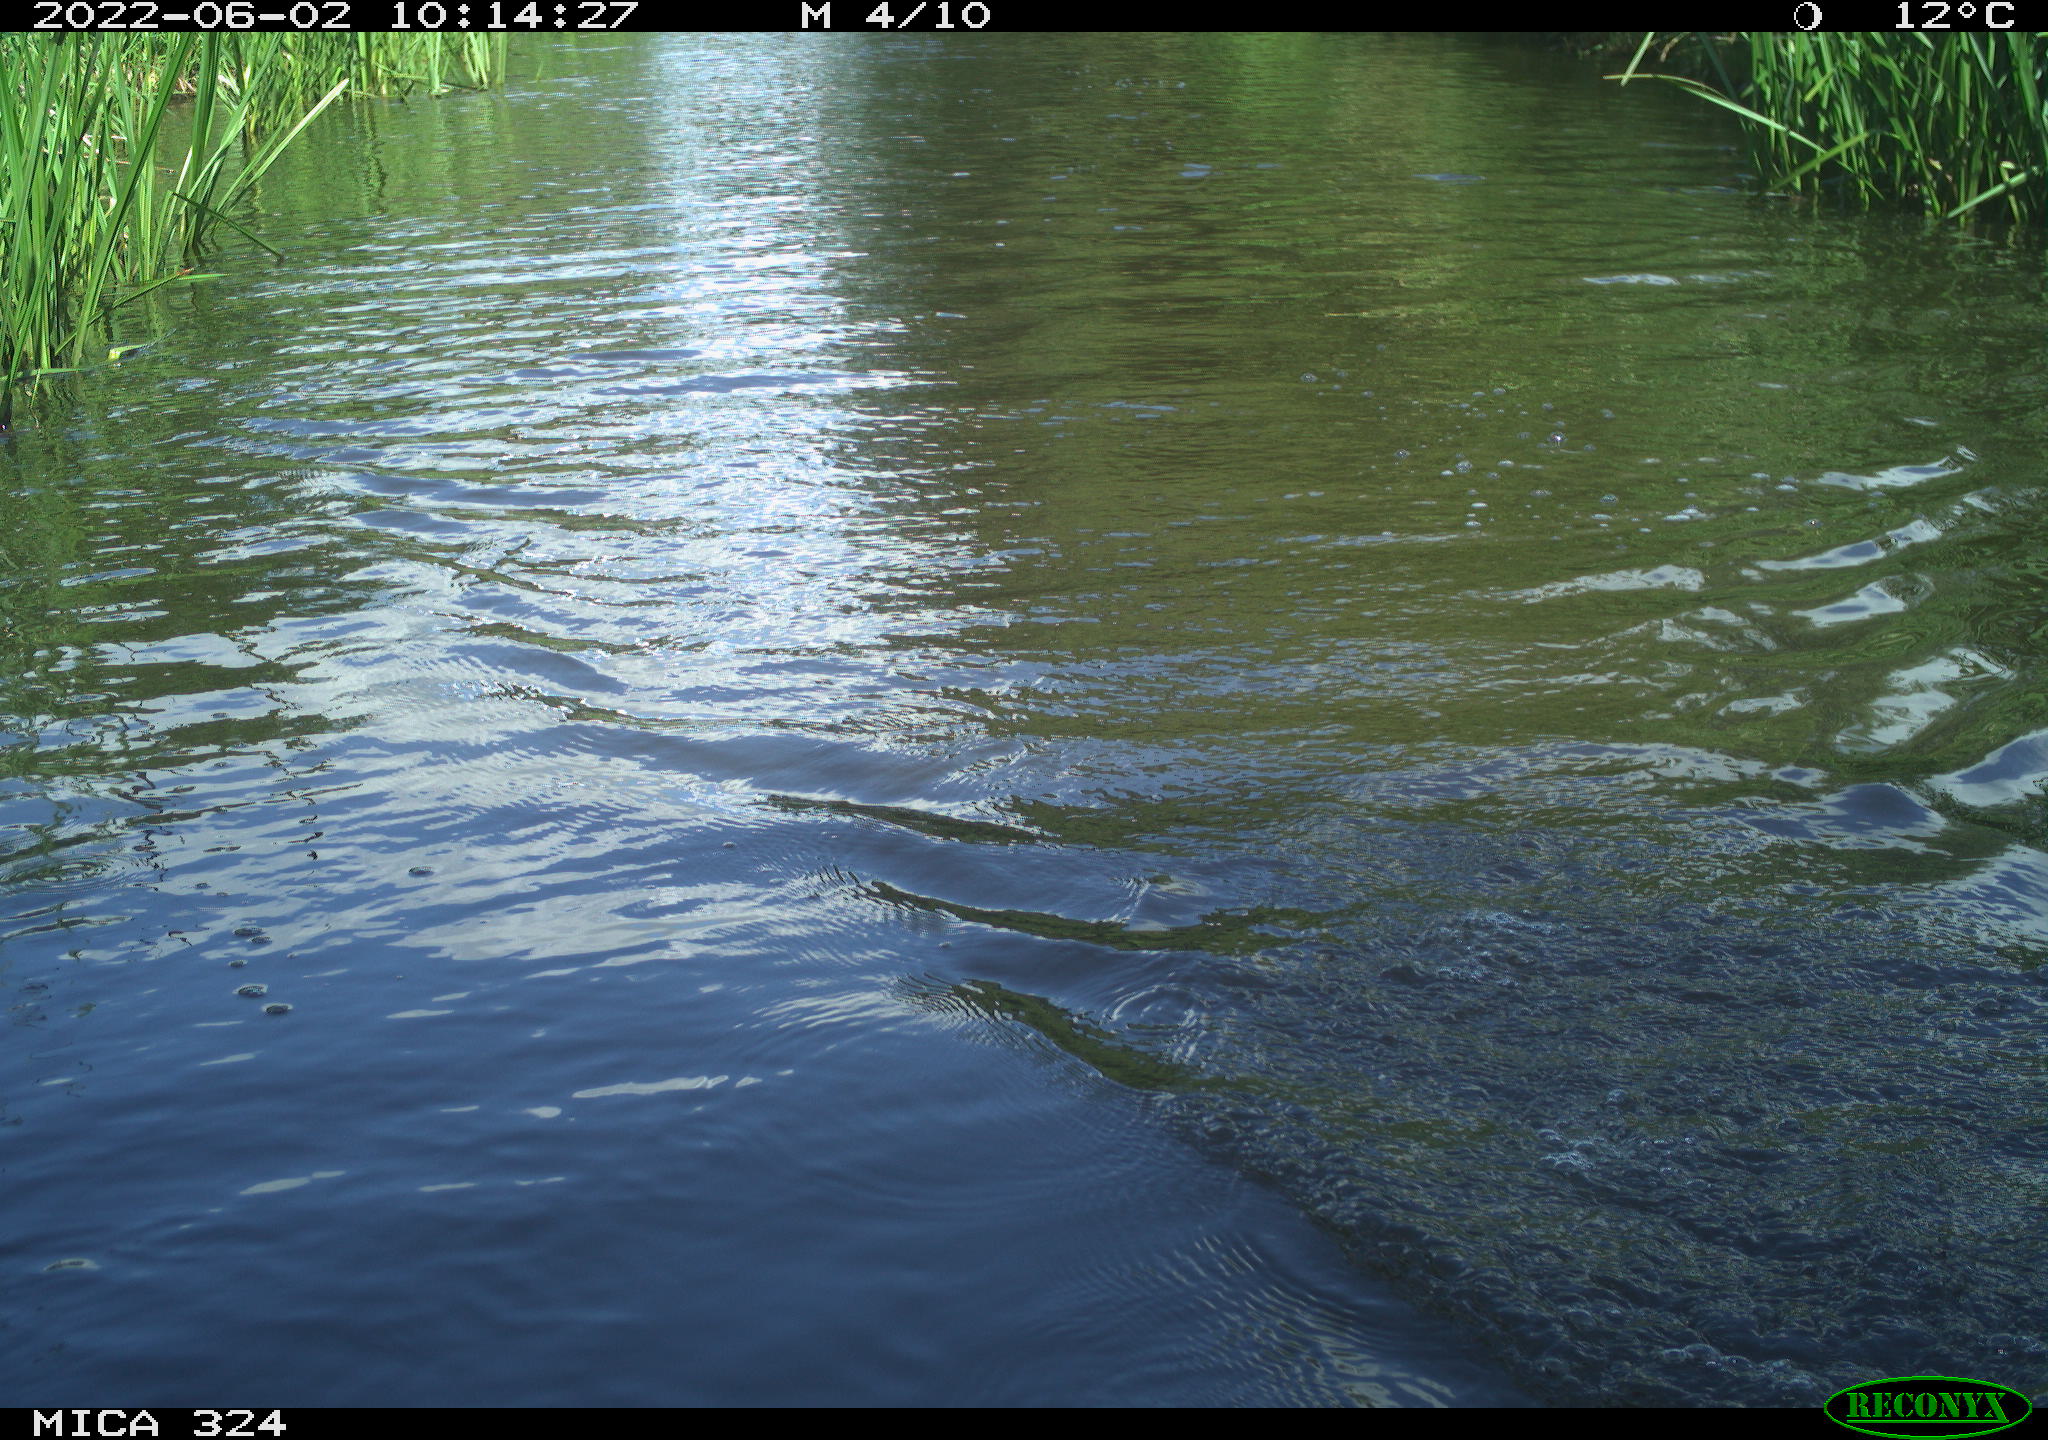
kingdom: Animalia
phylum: Chordata
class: Aves
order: Gruiformes
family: Rallidae
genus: Fulica
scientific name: Fulica atra
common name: Eurasian coot
